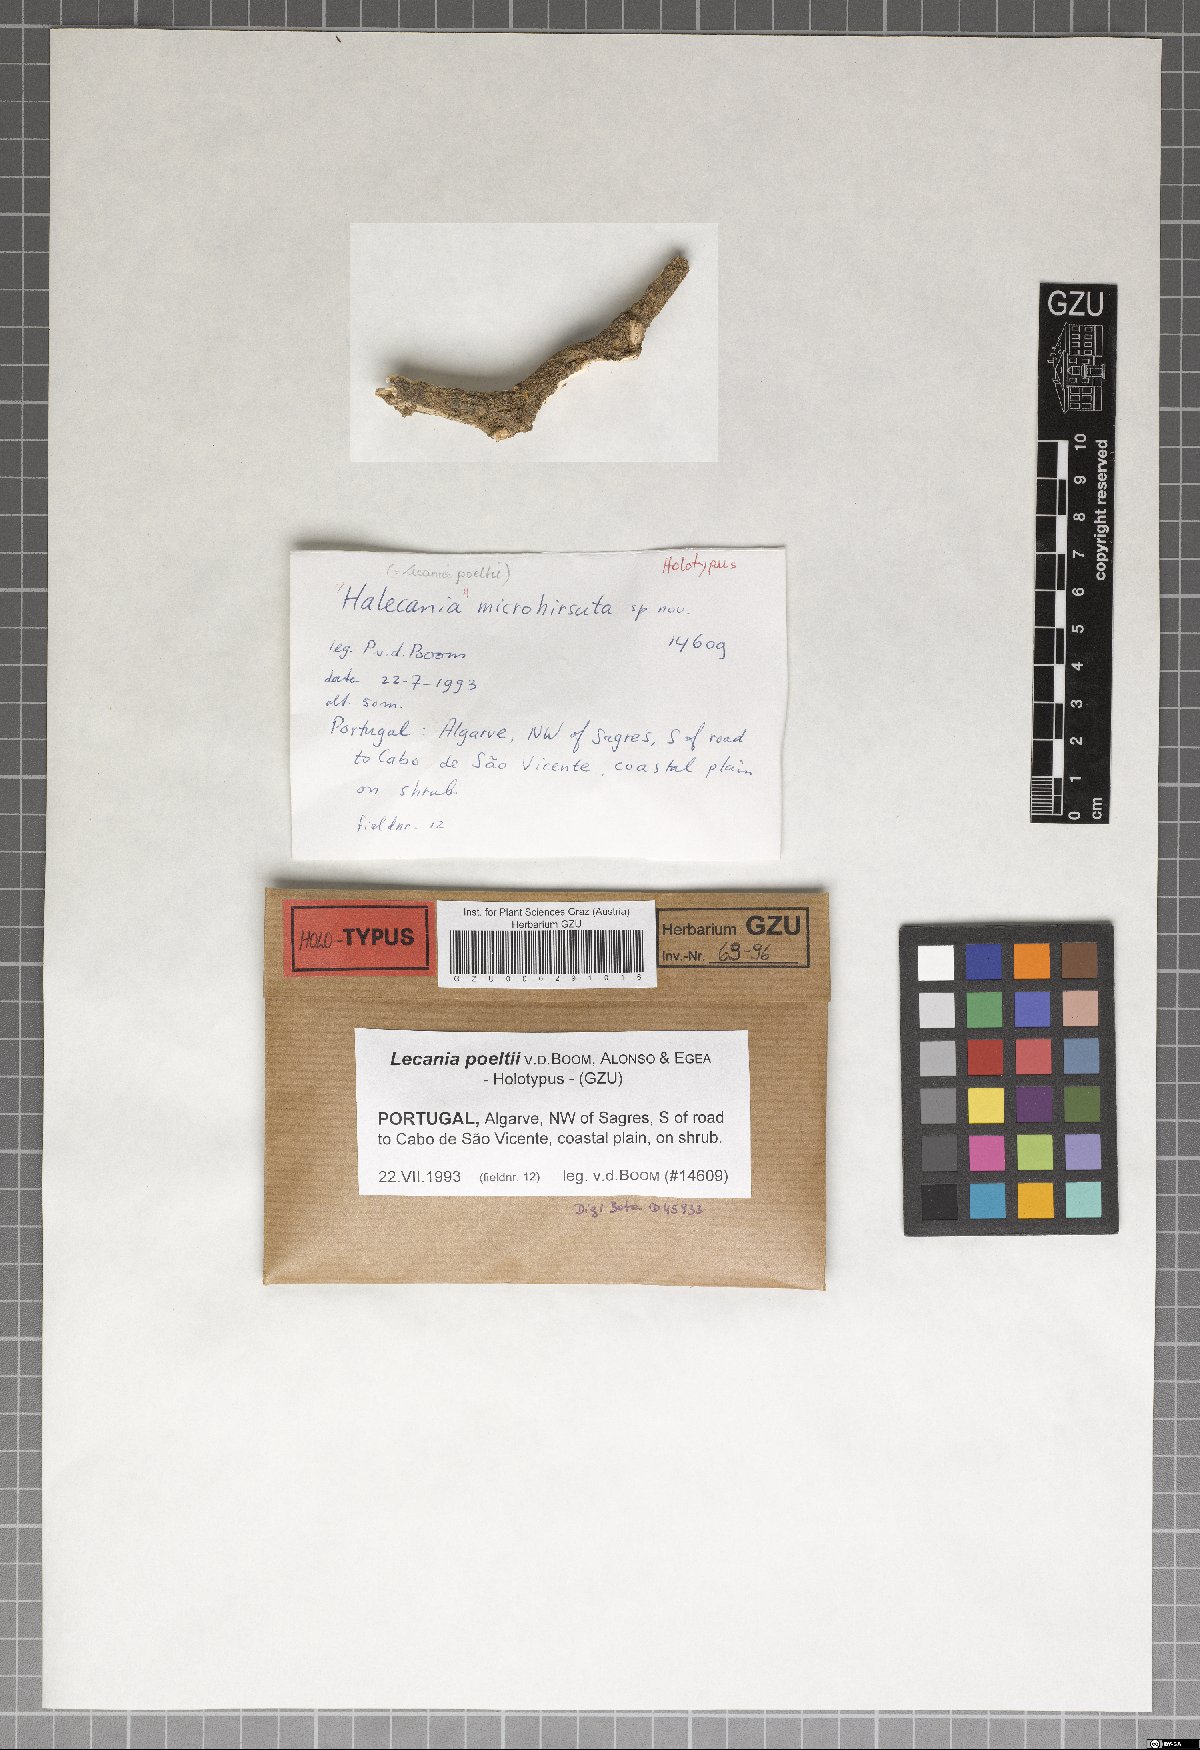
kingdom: Fungi
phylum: Ascomycota
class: Lecanoromycetes
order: Lecanorales
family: Ramalinaceae
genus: Lecania
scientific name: Lecania poeltii
